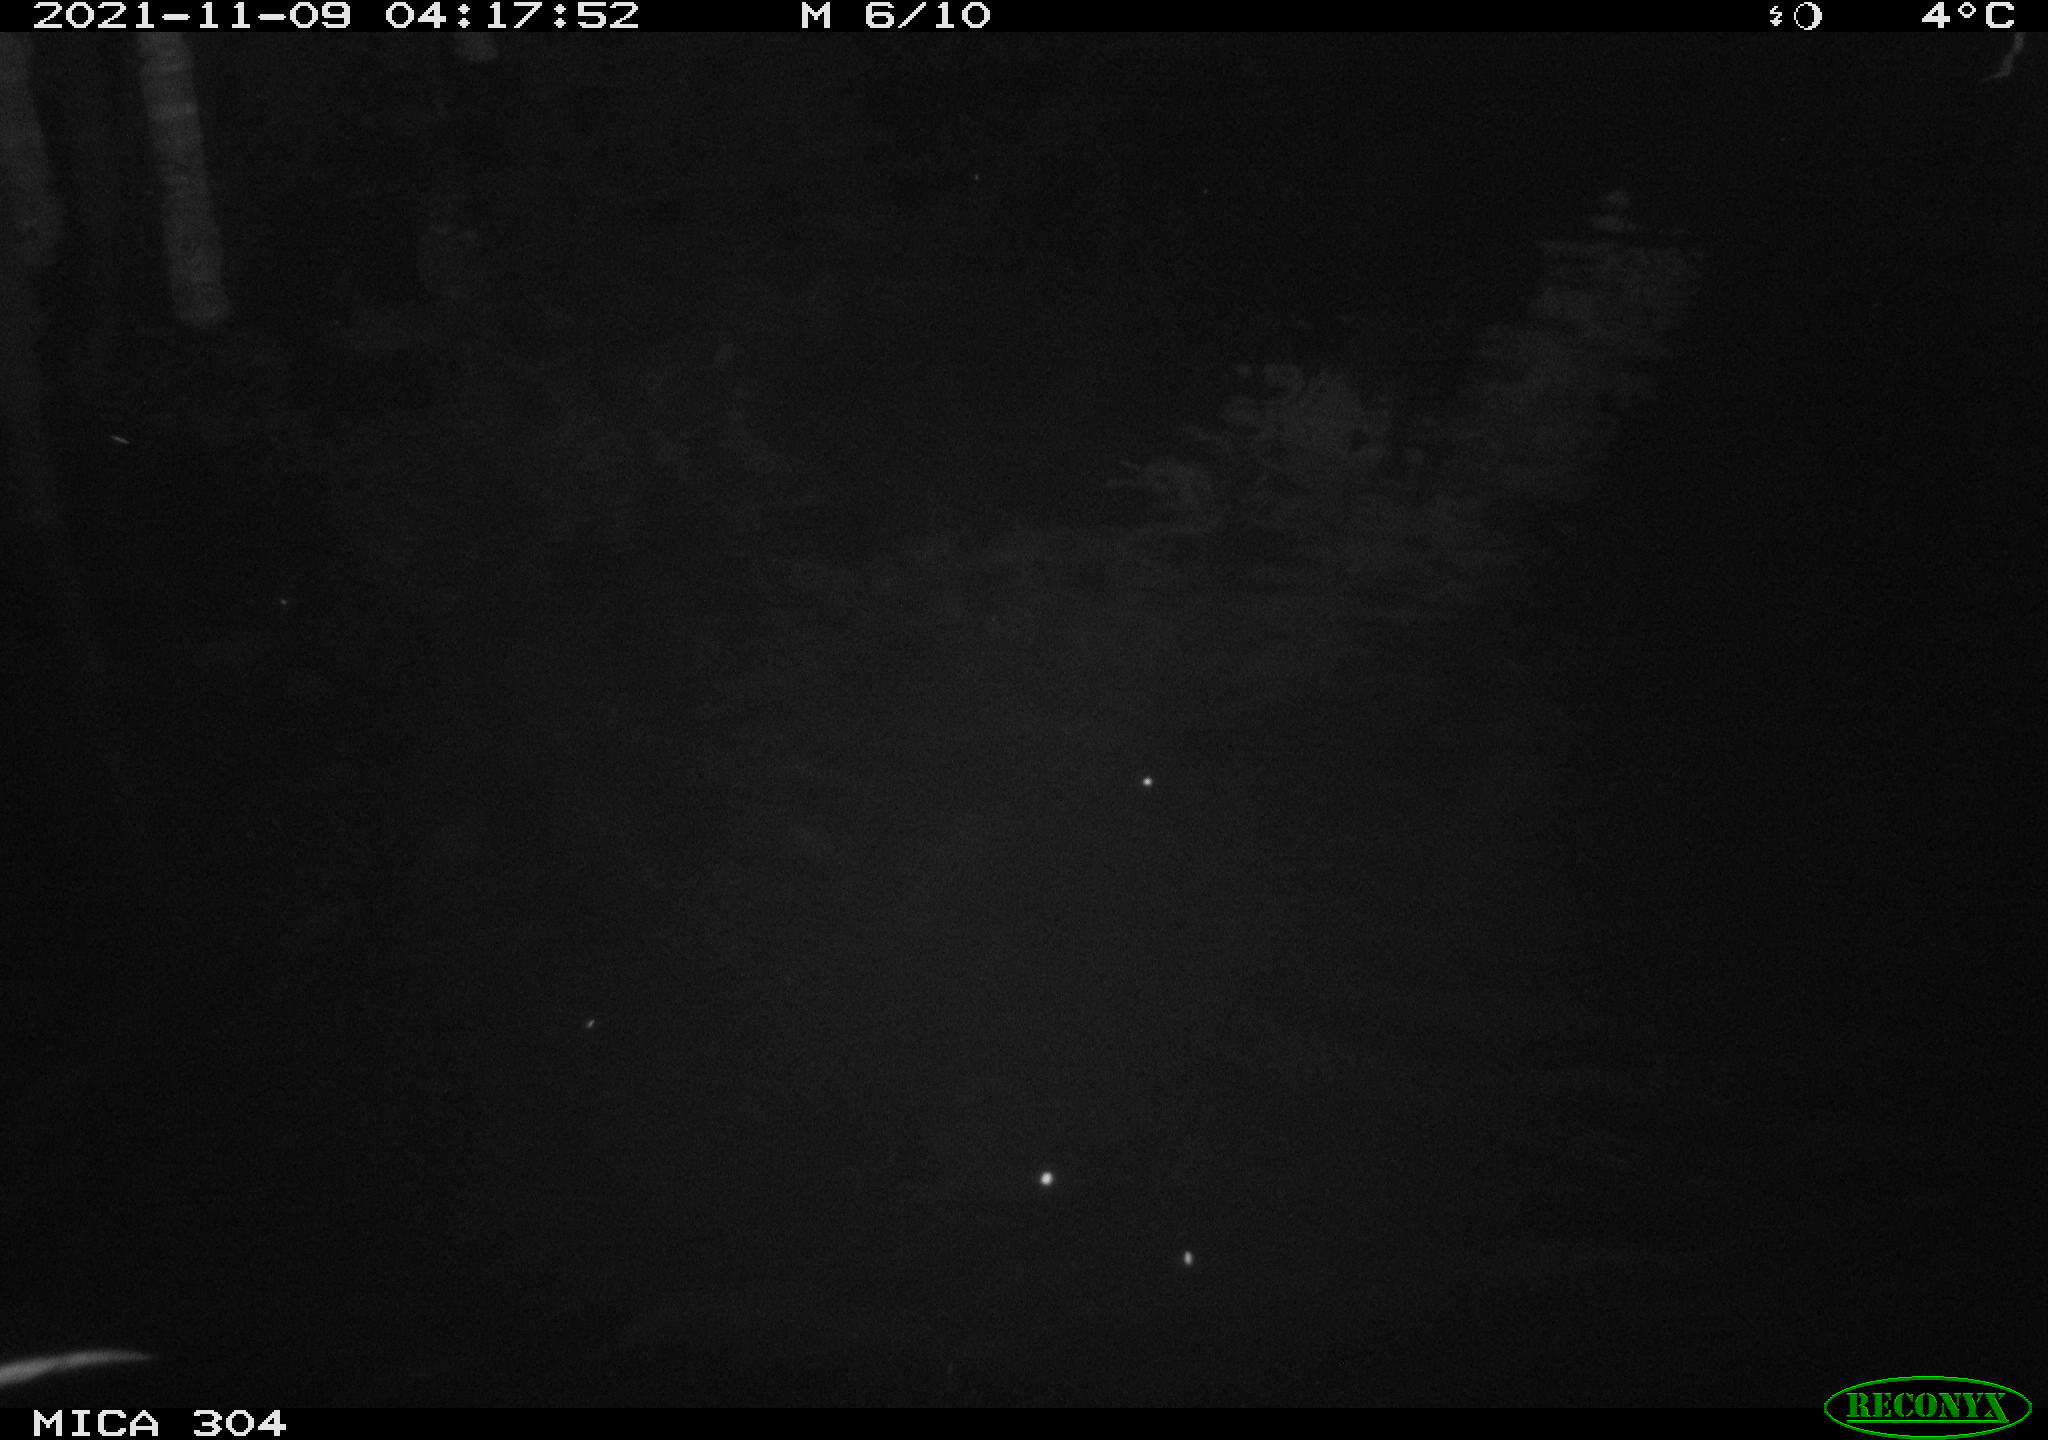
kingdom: Animalia
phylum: Chordata
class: Mammalia
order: Rodentia
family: Muridae
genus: Rattus
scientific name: Rattus norvegicus
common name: Brown rat
